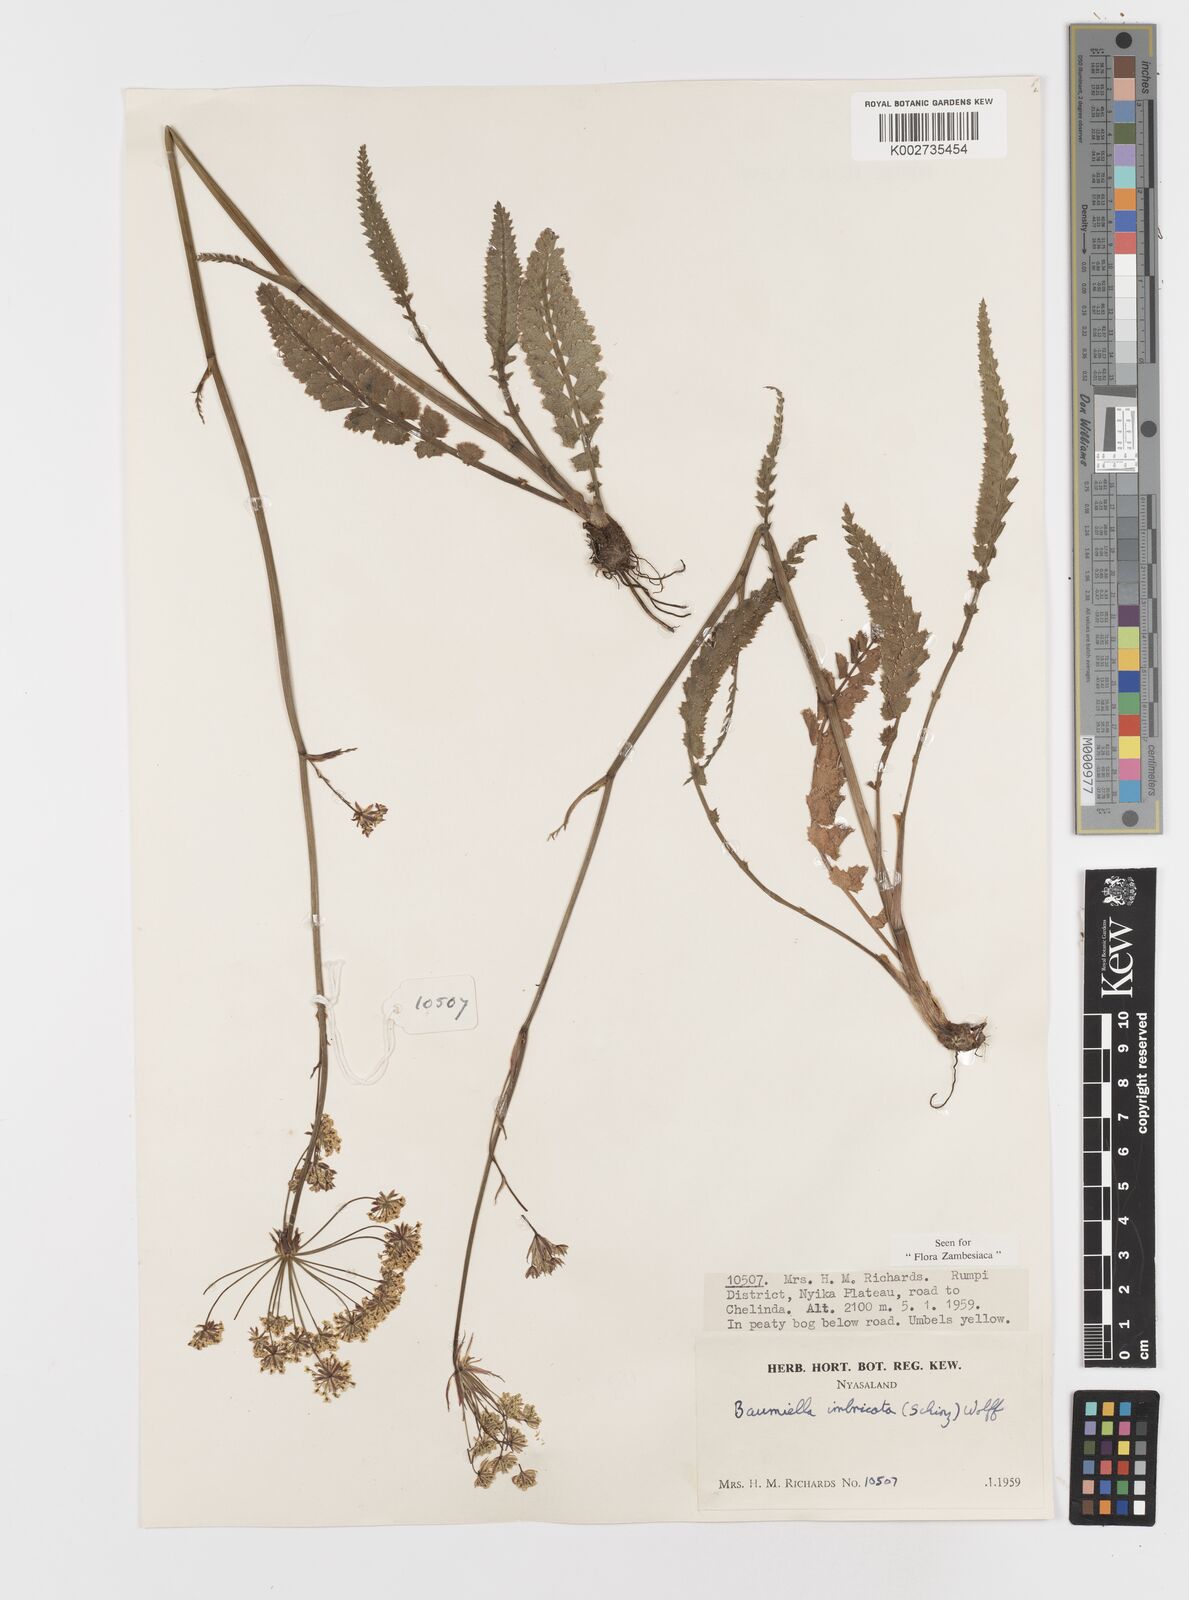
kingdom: Plantae
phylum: Tracheophyta
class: Magnoliopsida
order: Apiales
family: Apiaceae
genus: Berula
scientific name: Berula imbricata
